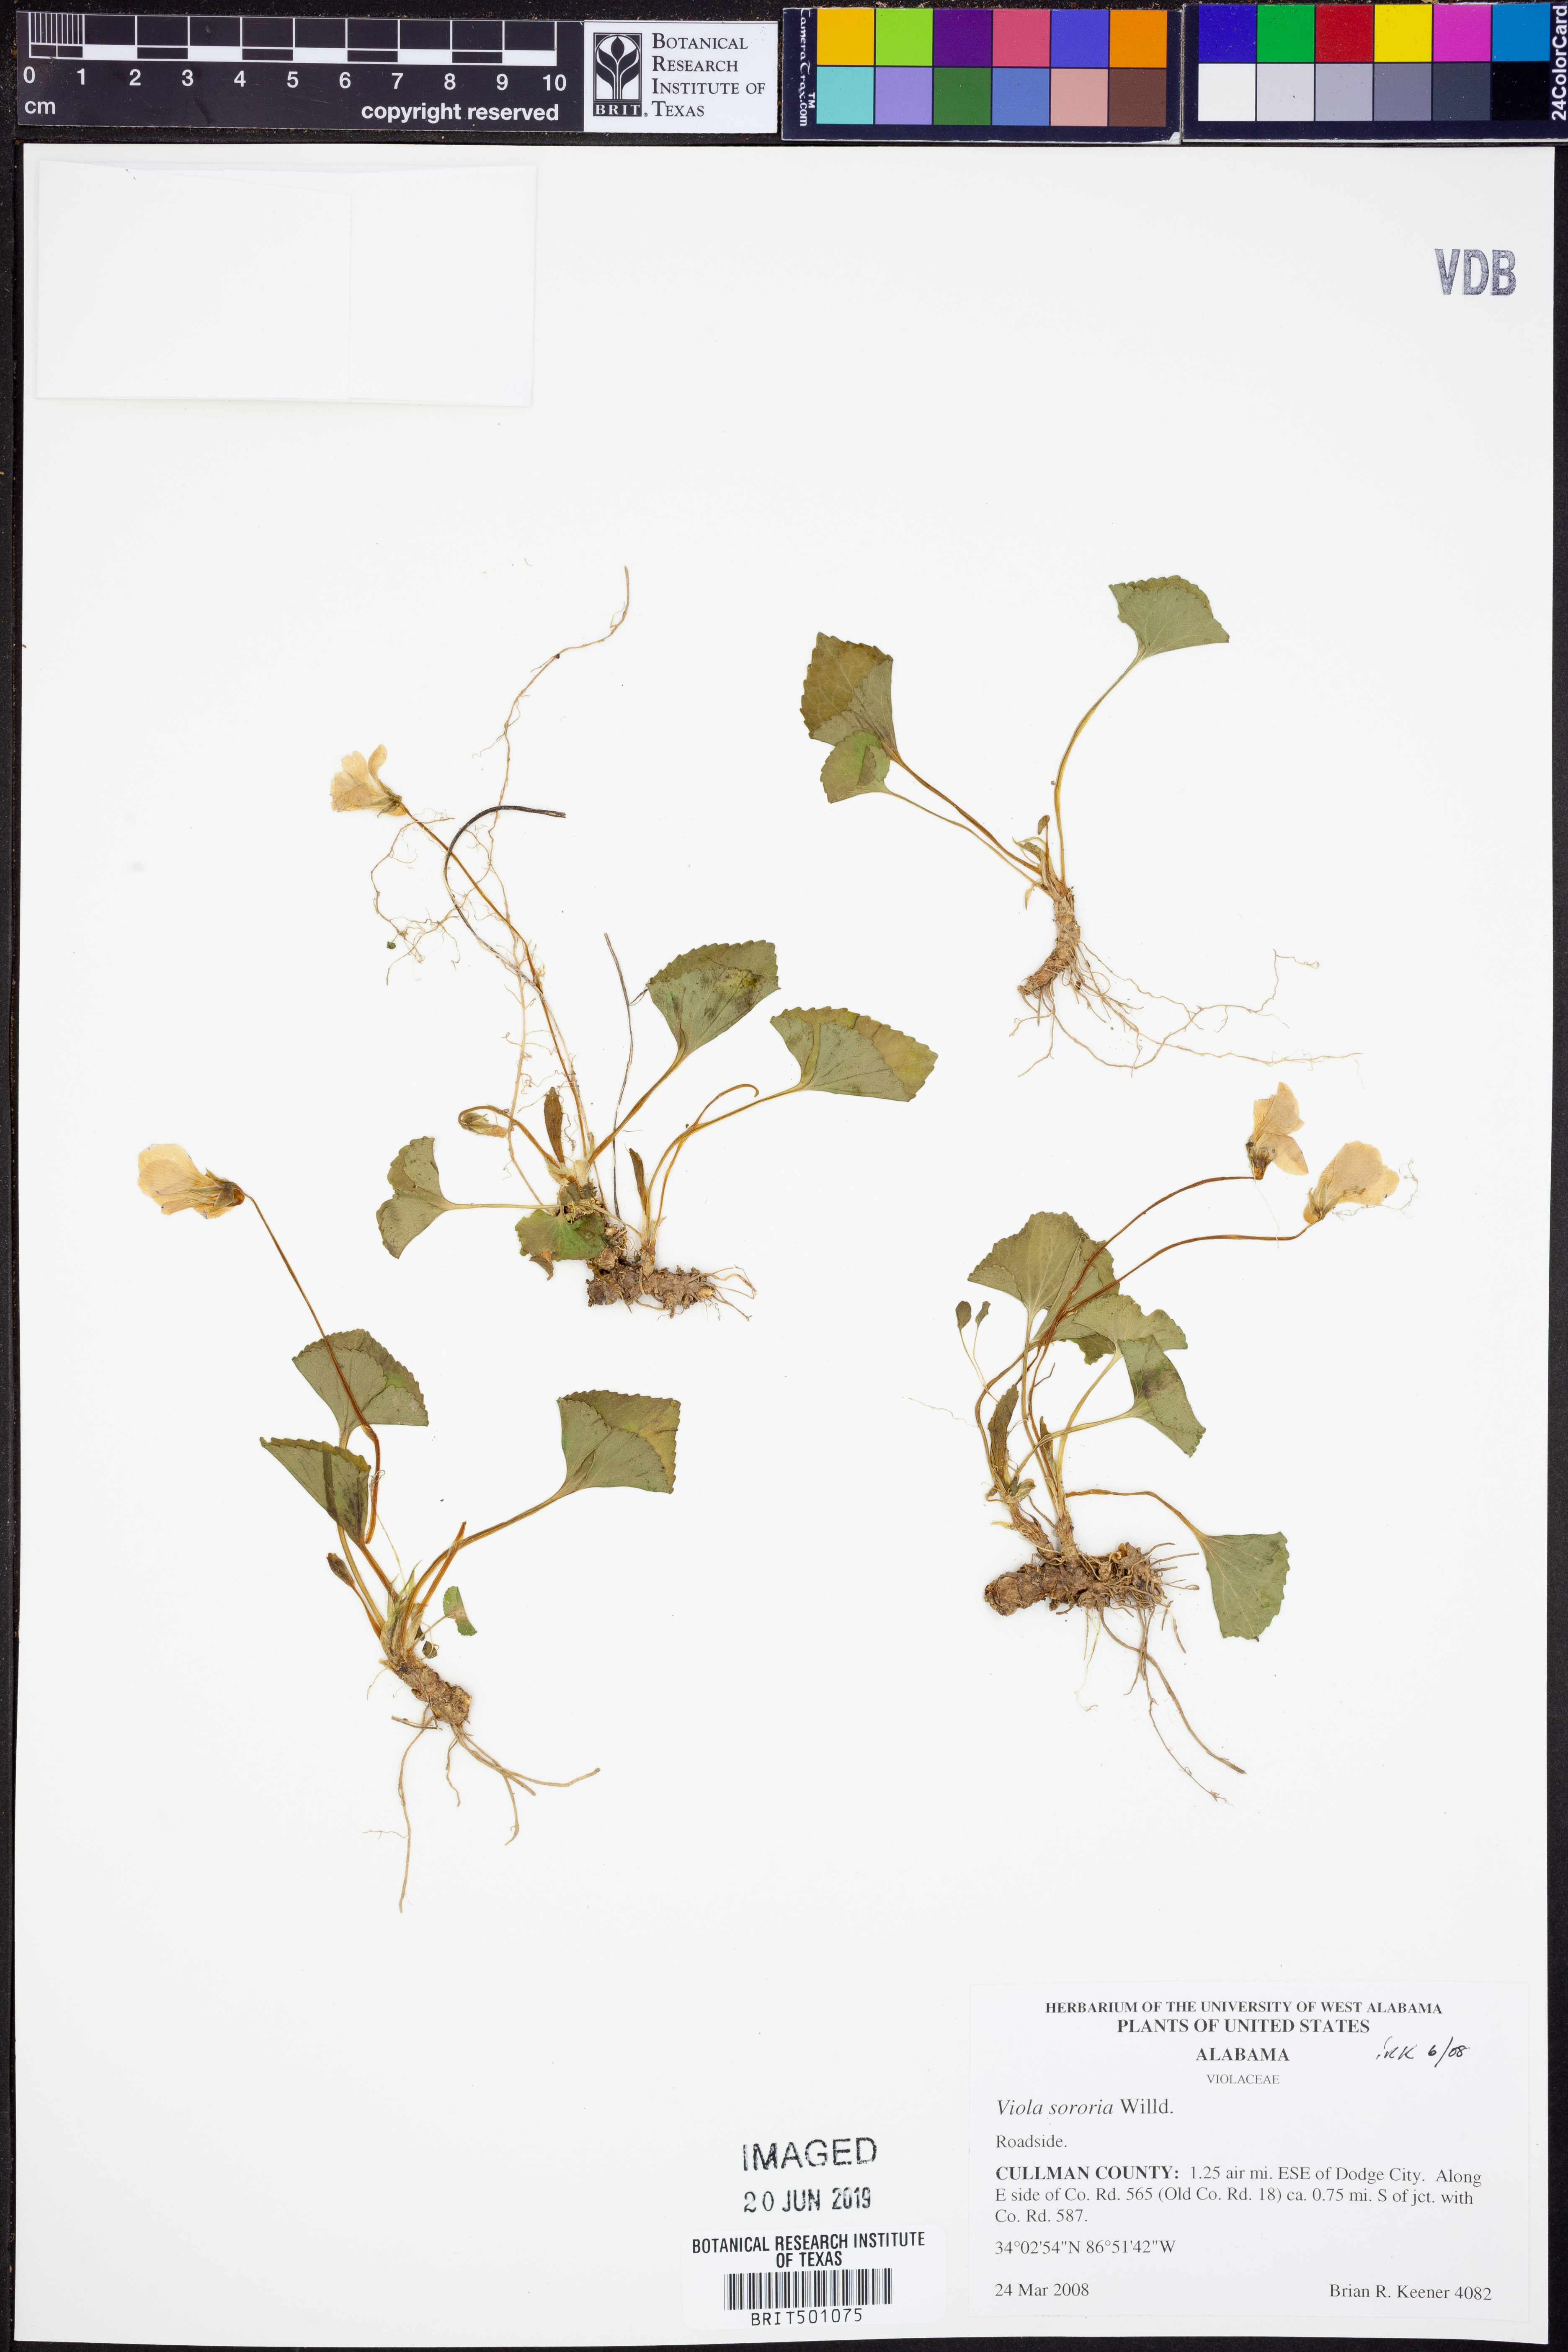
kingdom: Plantae
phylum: Tracheophyta
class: Magnoliopsida
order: Malpighiales
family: Violaceae
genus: Viola
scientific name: Viola sororia
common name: Dooryard violet
